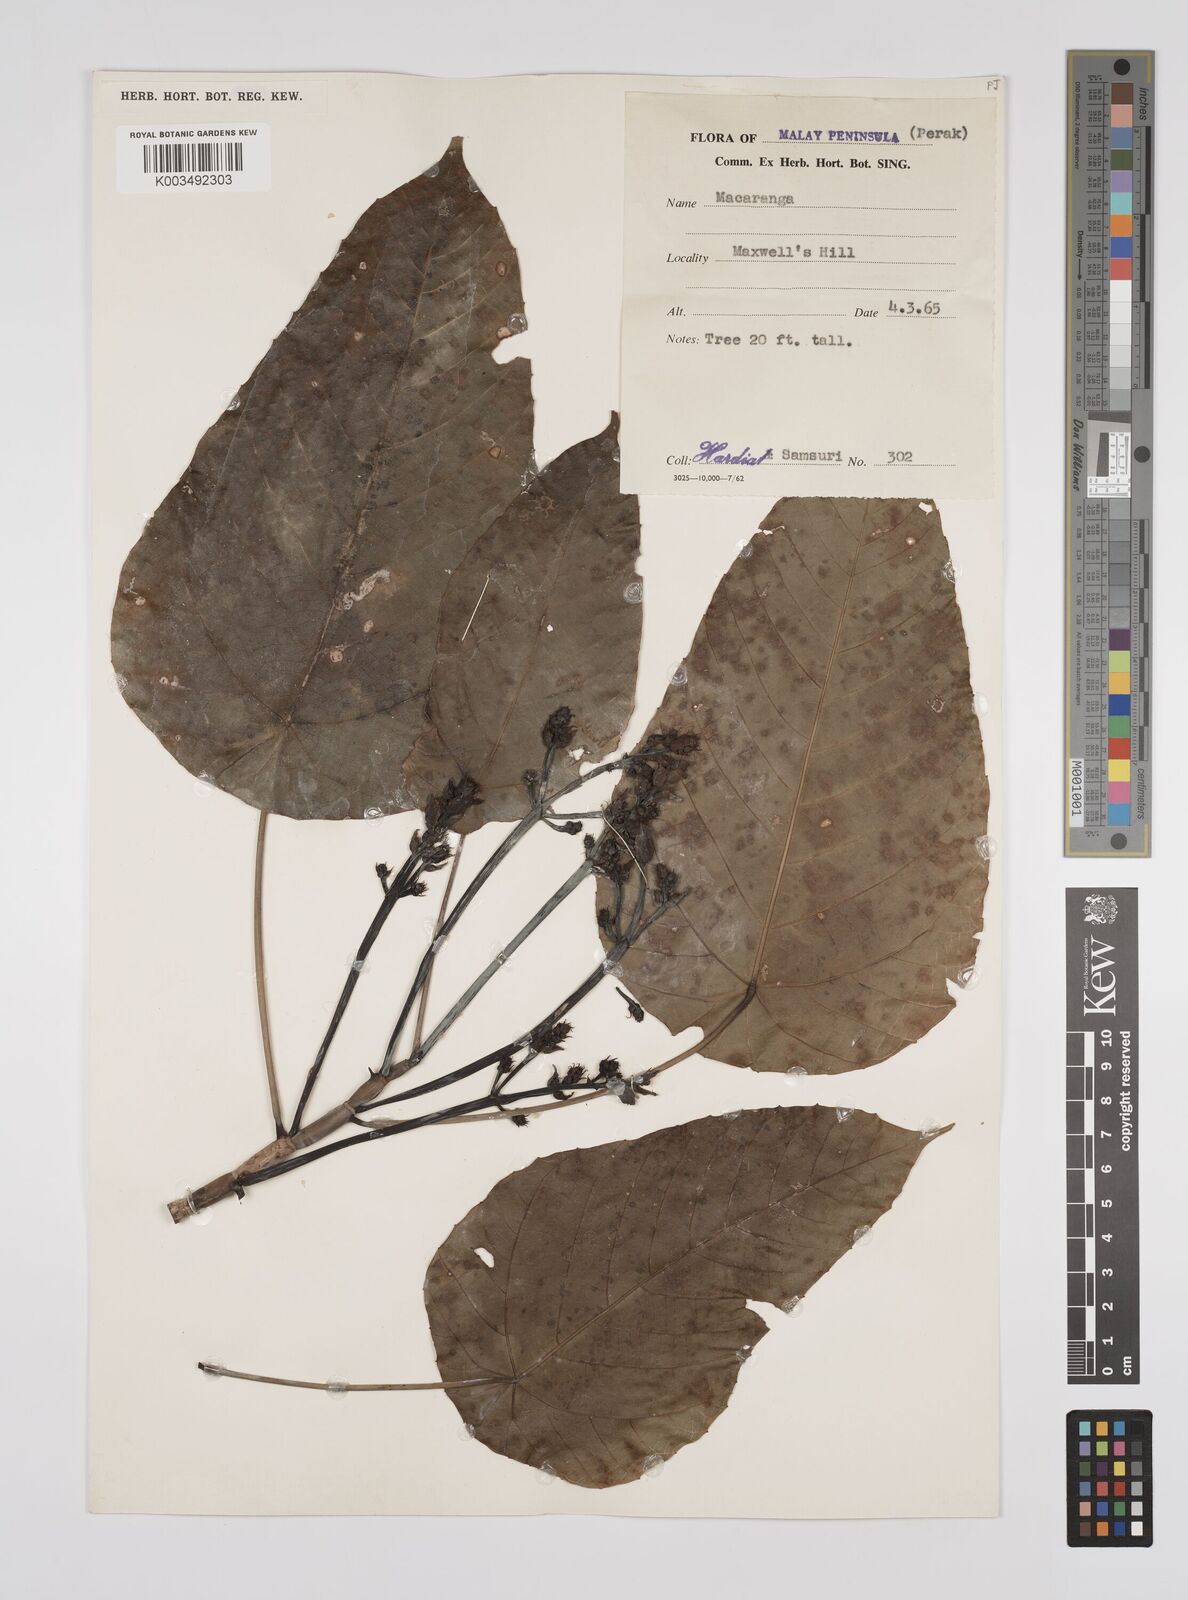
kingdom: Plantae
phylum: Tracheophyta
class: Magnoliopsida
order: Malpighiales
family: Euphorbiaceae
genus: Macaranga
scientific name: Macaranga hullettii
